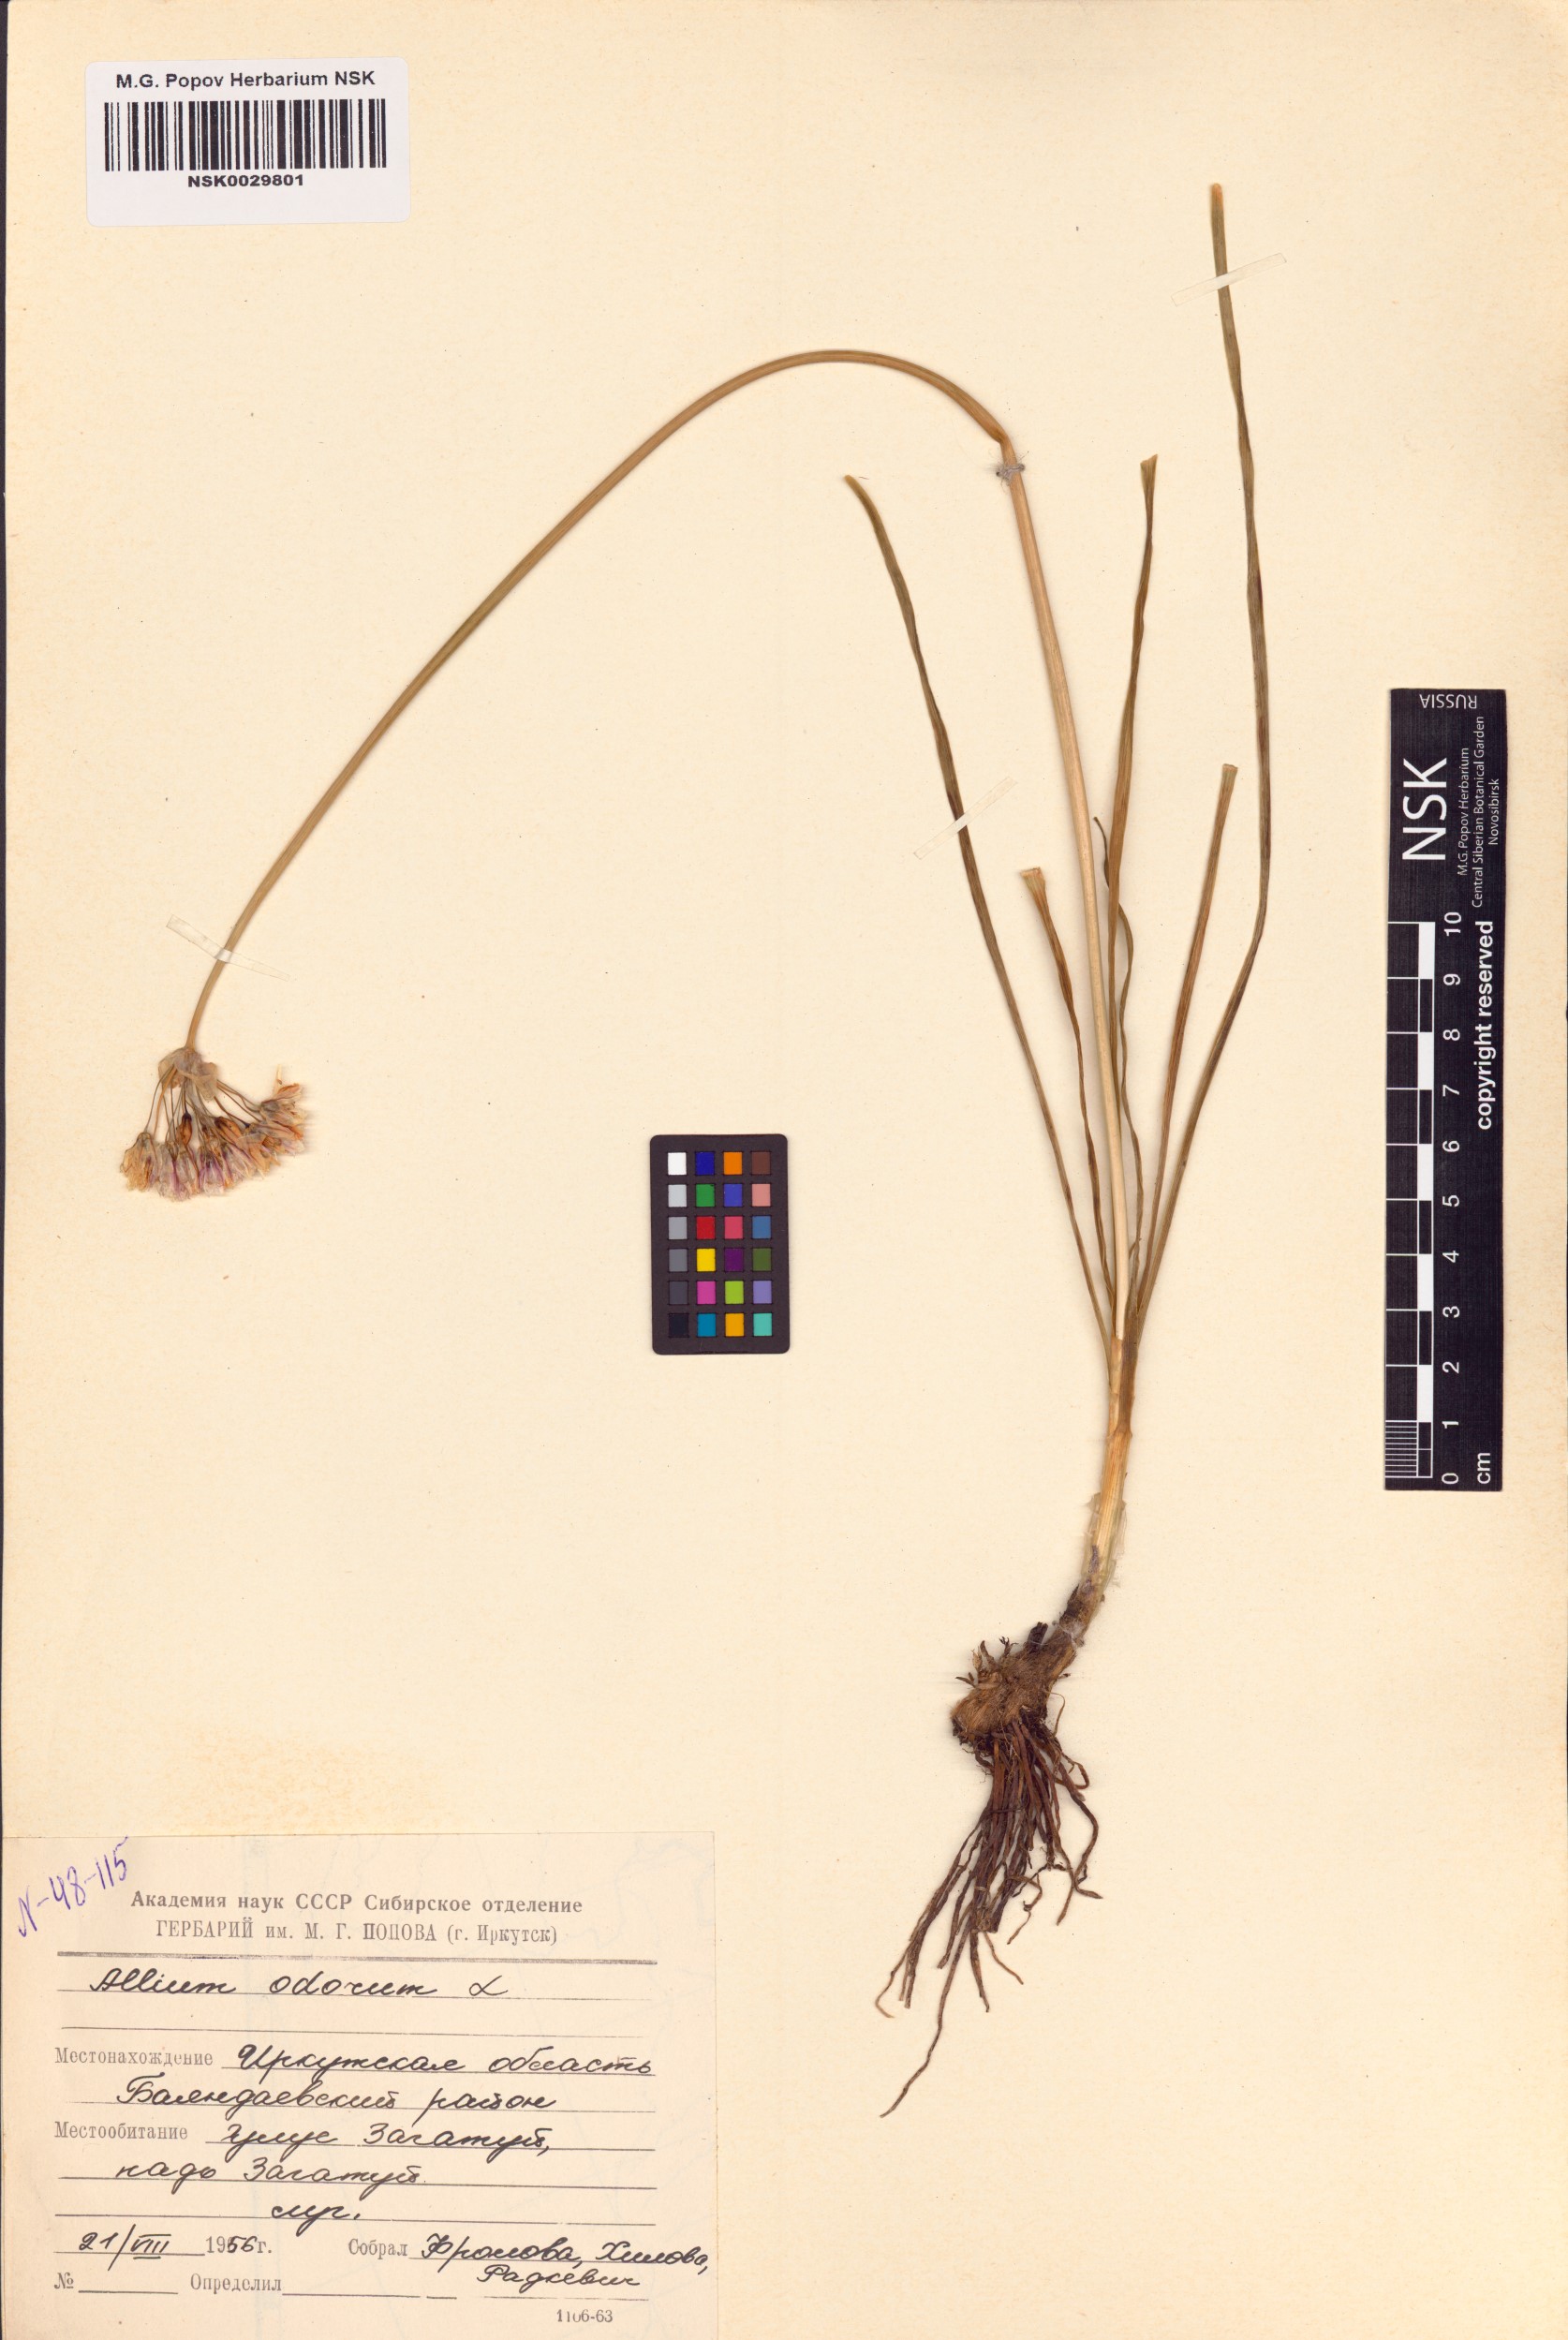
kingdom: Plantae
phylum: Tracheophyta
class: Liliopsida
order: Asparagales
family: Amaryllidaceae
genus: Allium
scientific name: Allium ramosum
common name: Fragrant garlic
